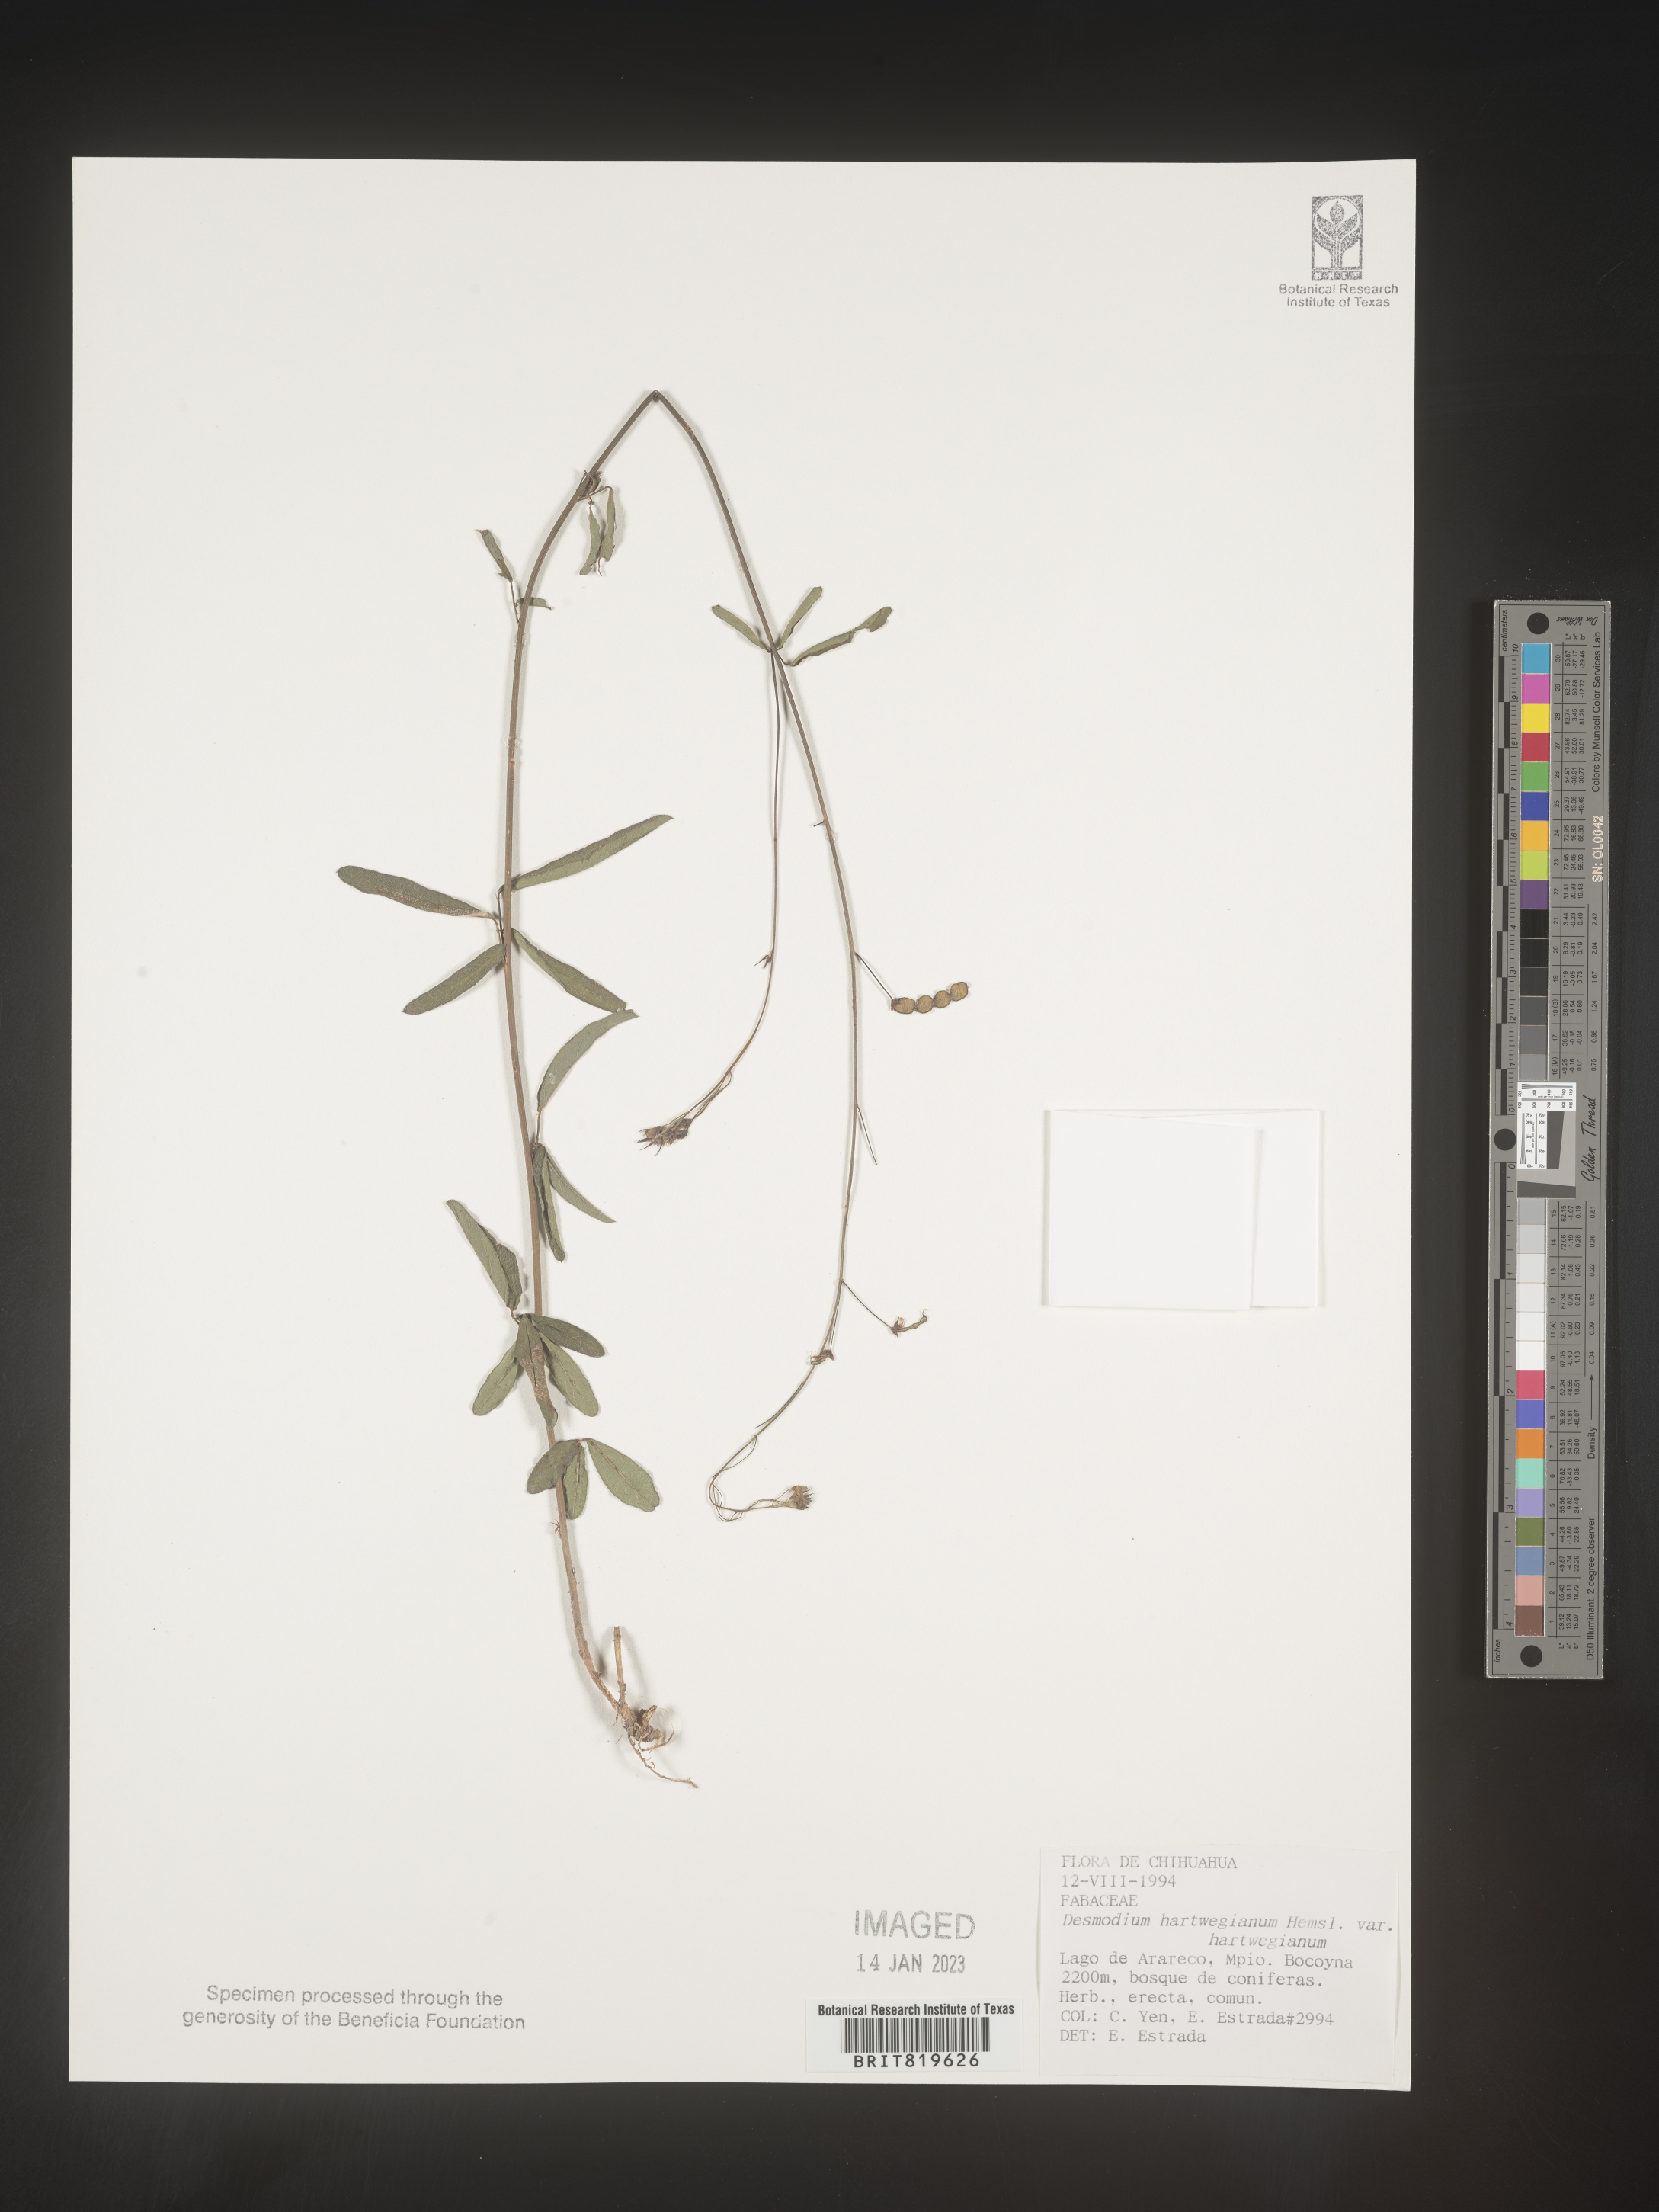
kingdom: Plantae
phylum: Tracheophyta
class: Magnoliopsida
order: Fabales
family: Fabaceae
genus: Desmodium
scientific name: Desmodium
